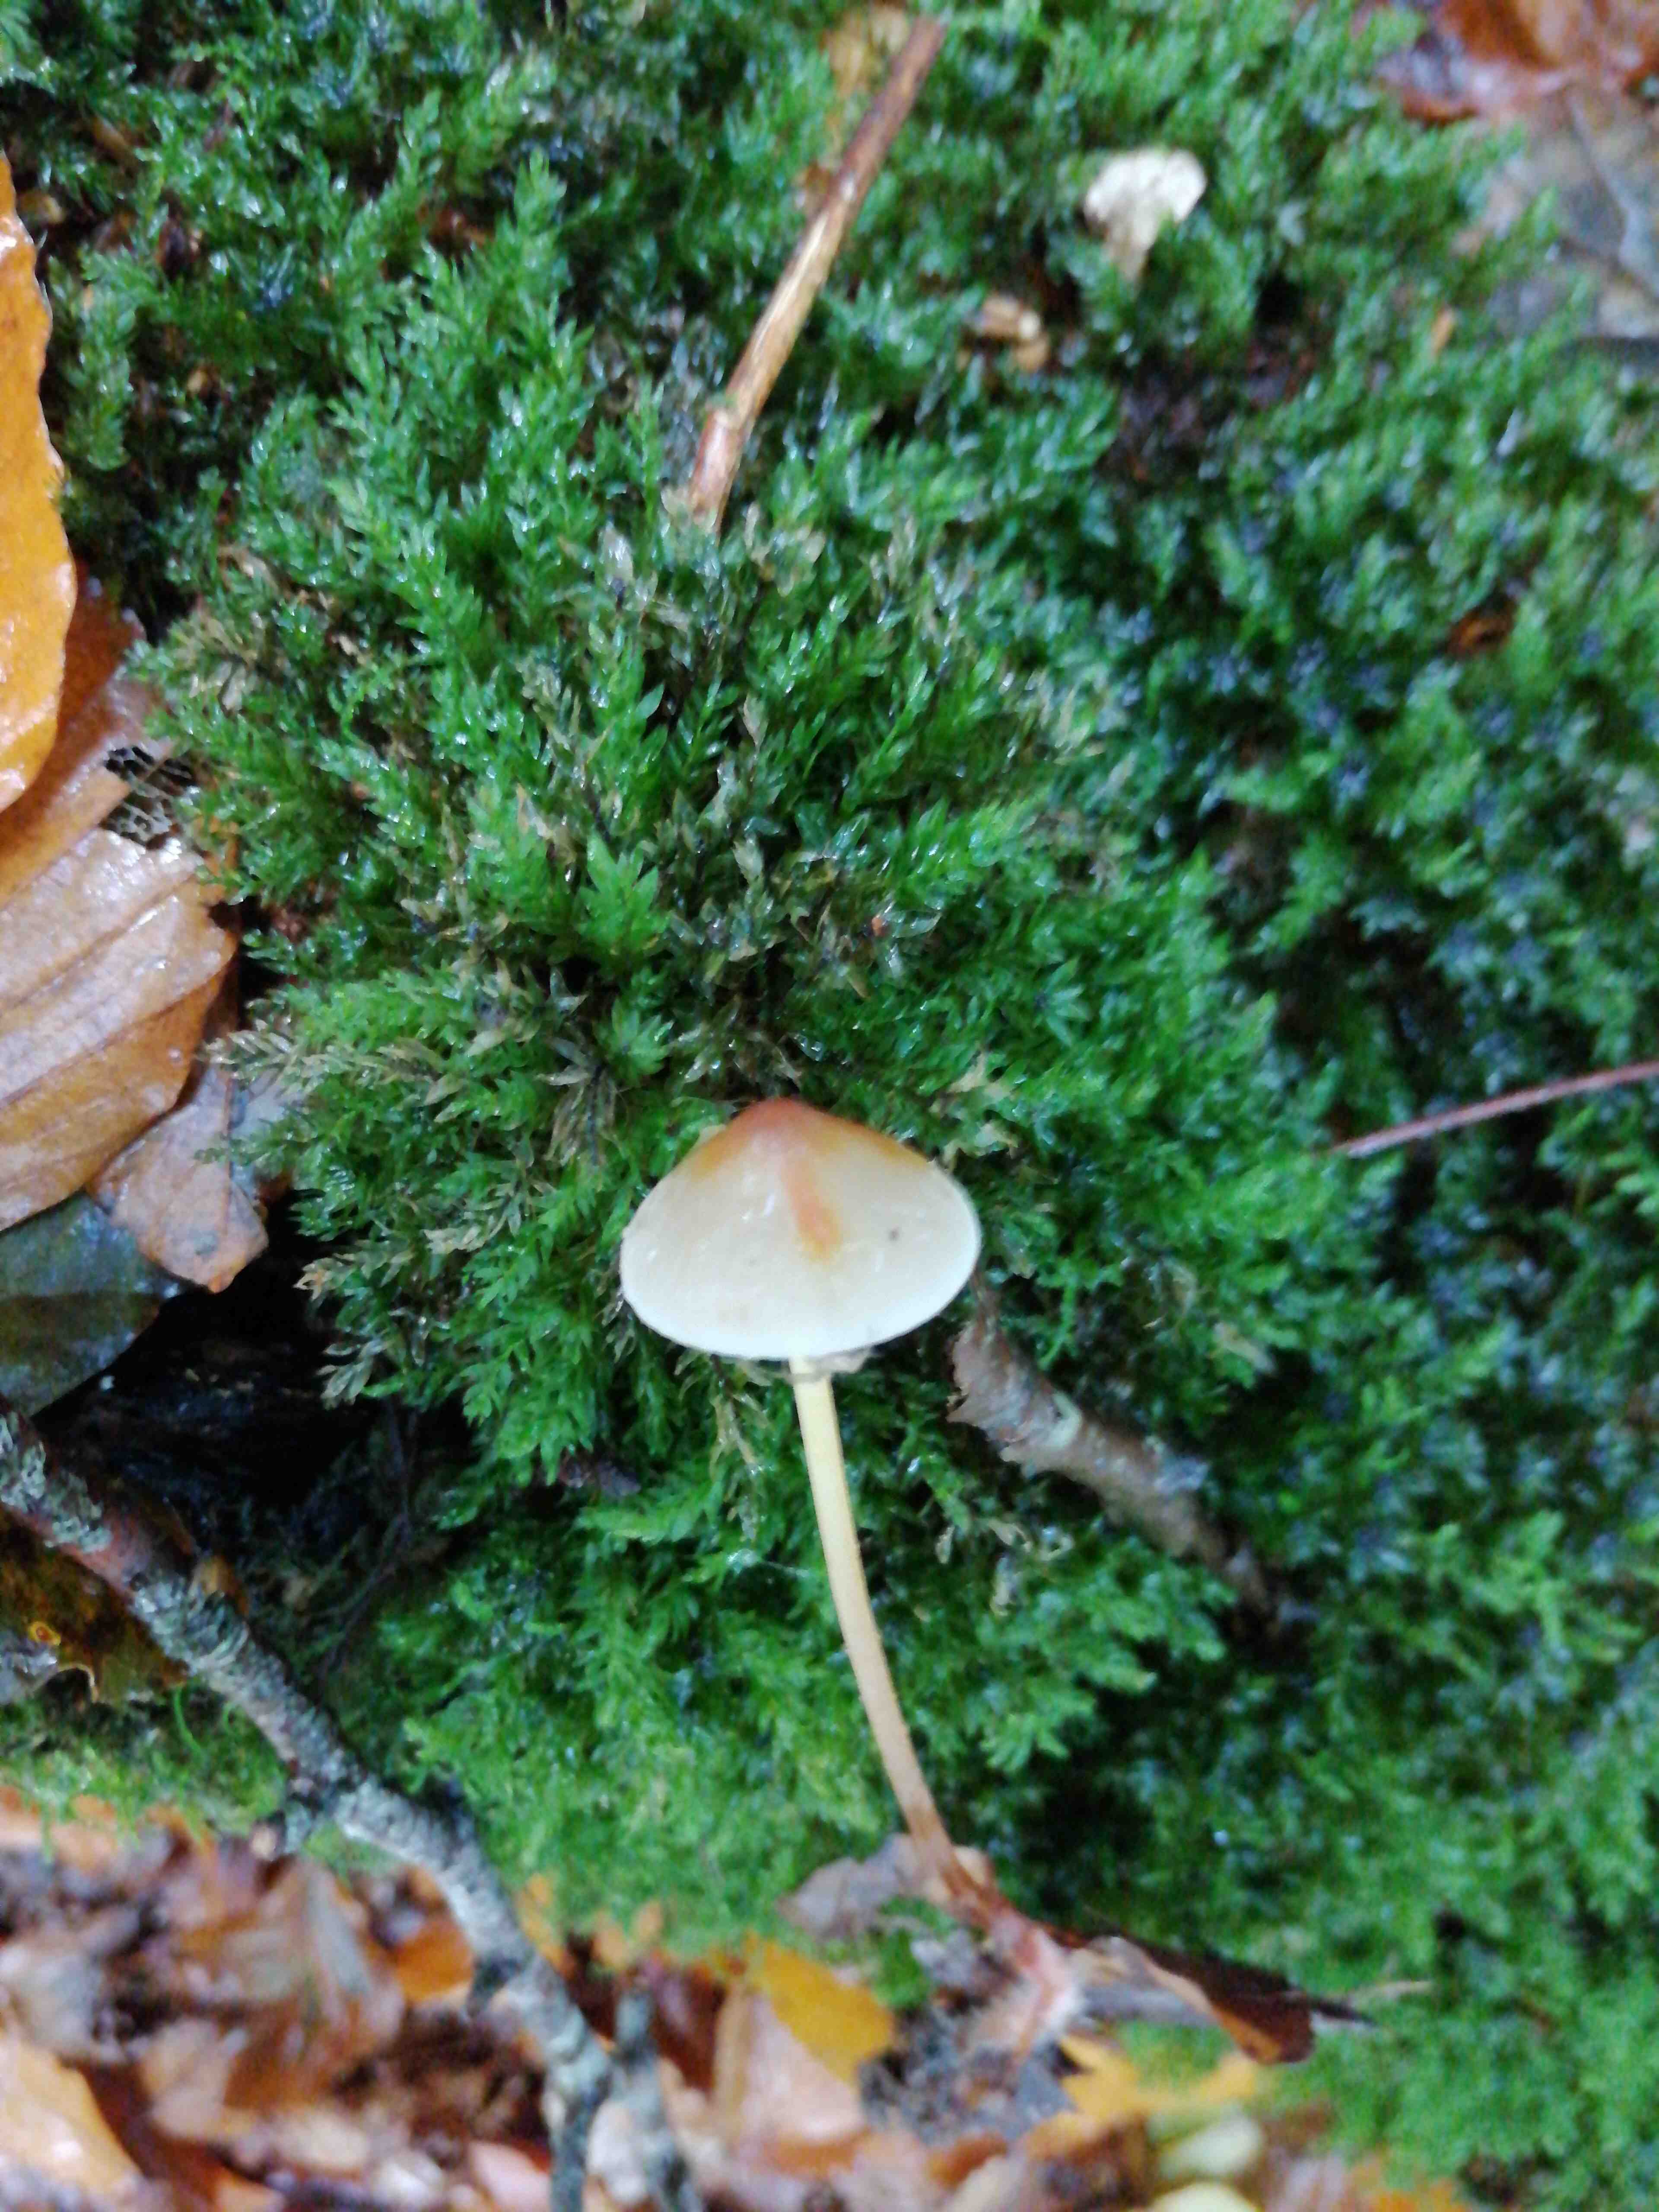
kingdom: Fungi
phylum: Basidiomycota
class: Agaricomycetes
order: Agaricales
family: Mycenaceae
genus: Mycena
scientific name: Mycena crocata
